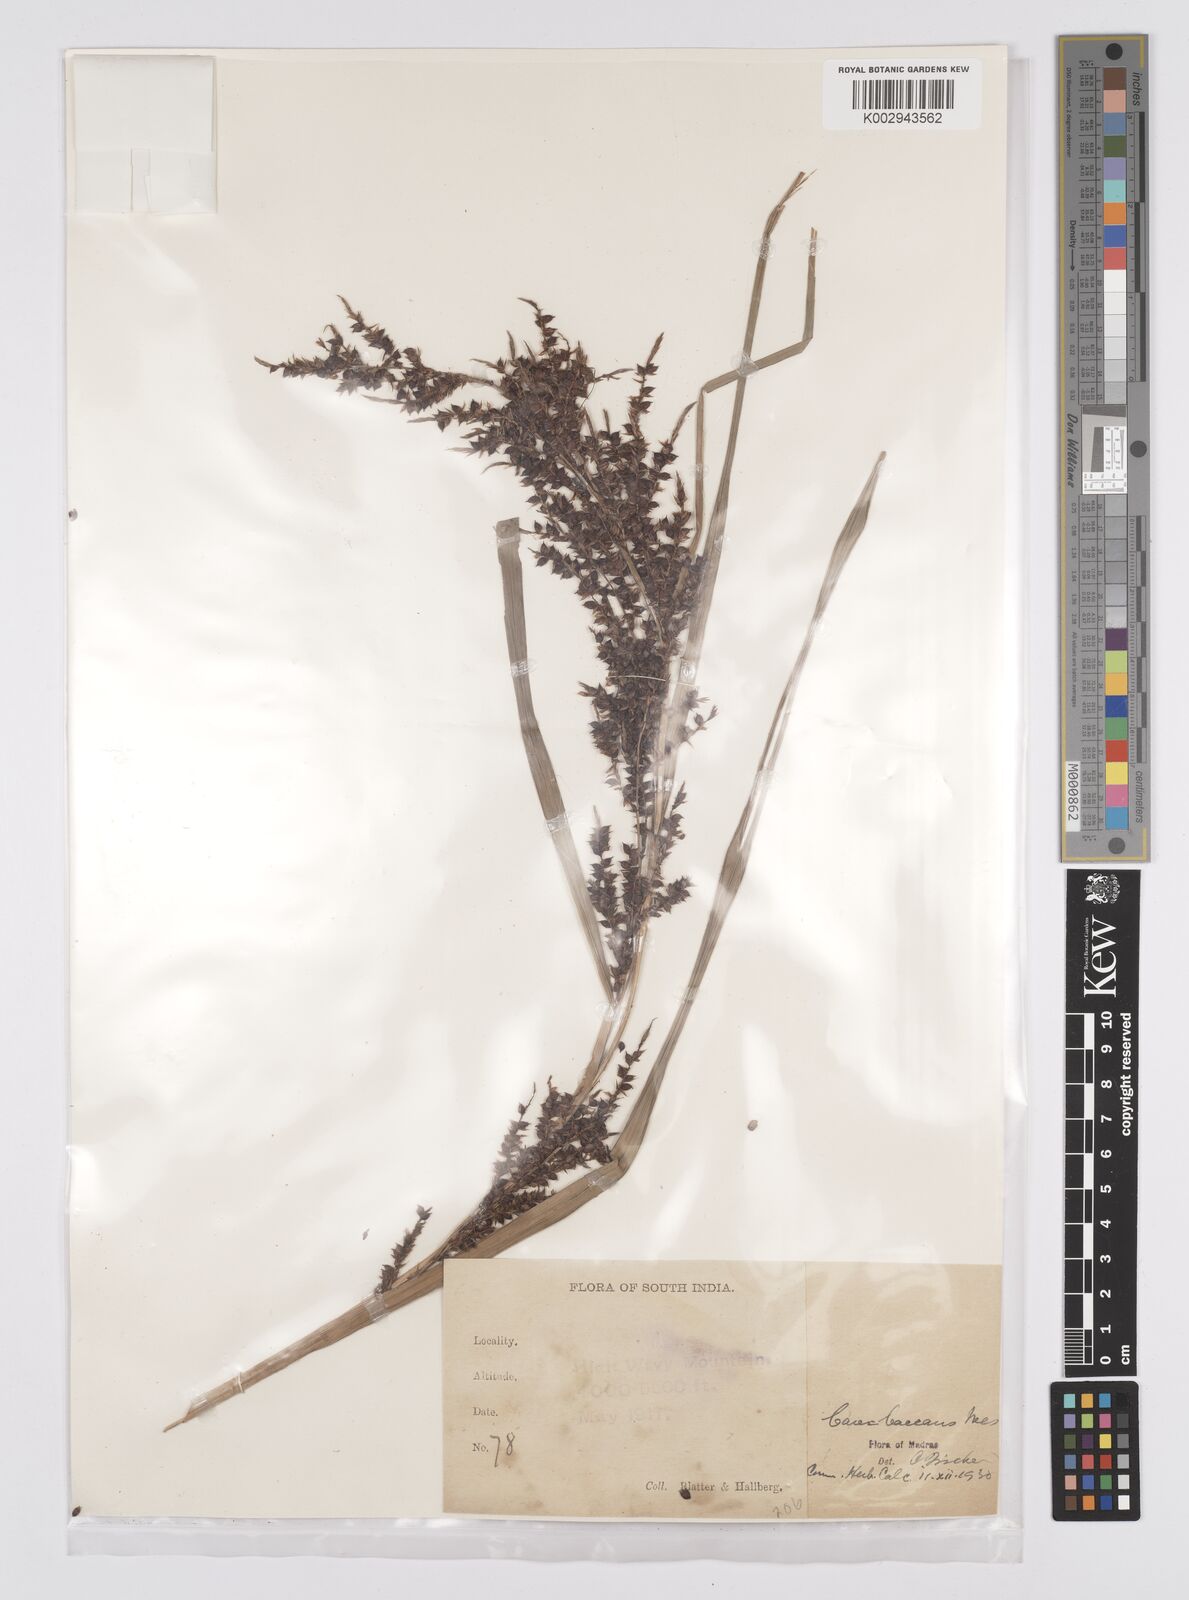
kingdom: Plantae
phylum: Tracheophyta
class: Liliopsida
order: Poales
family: Cyperaceae
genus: Carex
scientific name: Carex baccans
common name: Crimson seeded sedge
